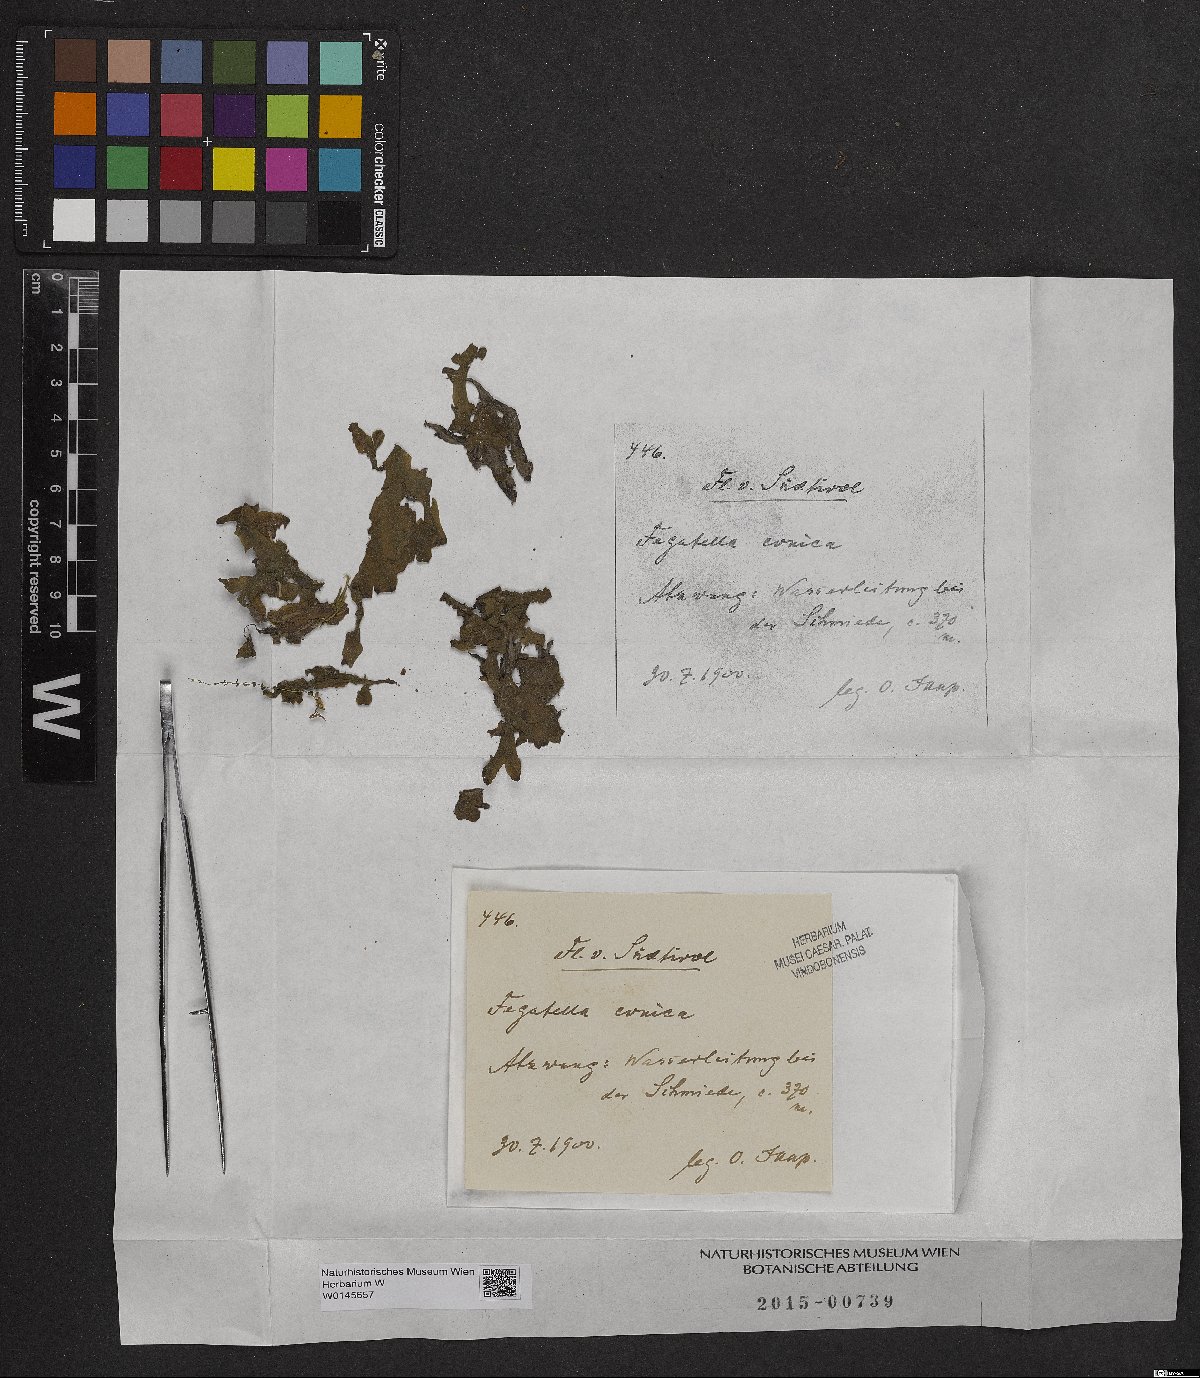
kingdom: Plantae
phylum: Marchantiophyta
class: Marchantiopsida
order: Marchantiales
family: Conocephalaceae
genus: Conocephalum
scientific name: Conocephalum conicum
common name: Great scented liverwort
